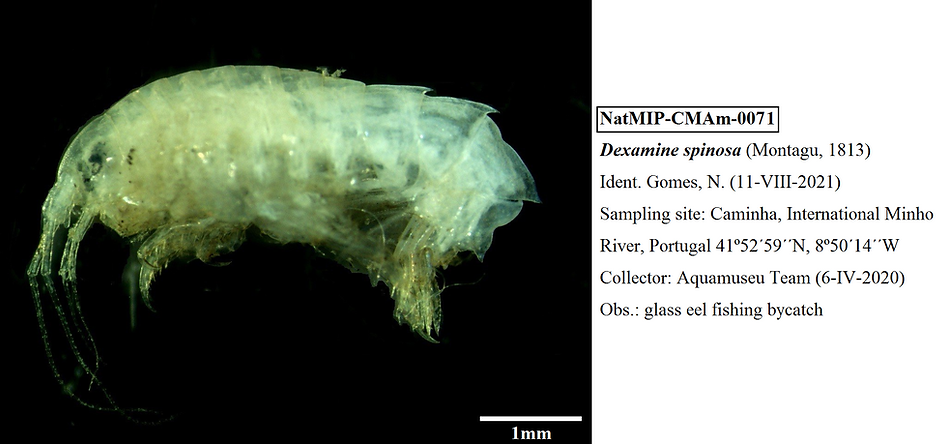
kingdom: Animalia
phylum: Arthropoda
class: Malacostraca
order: Amphipoda
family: Dexaminidae
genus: Dexamine
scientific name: Dexamine spinosa
